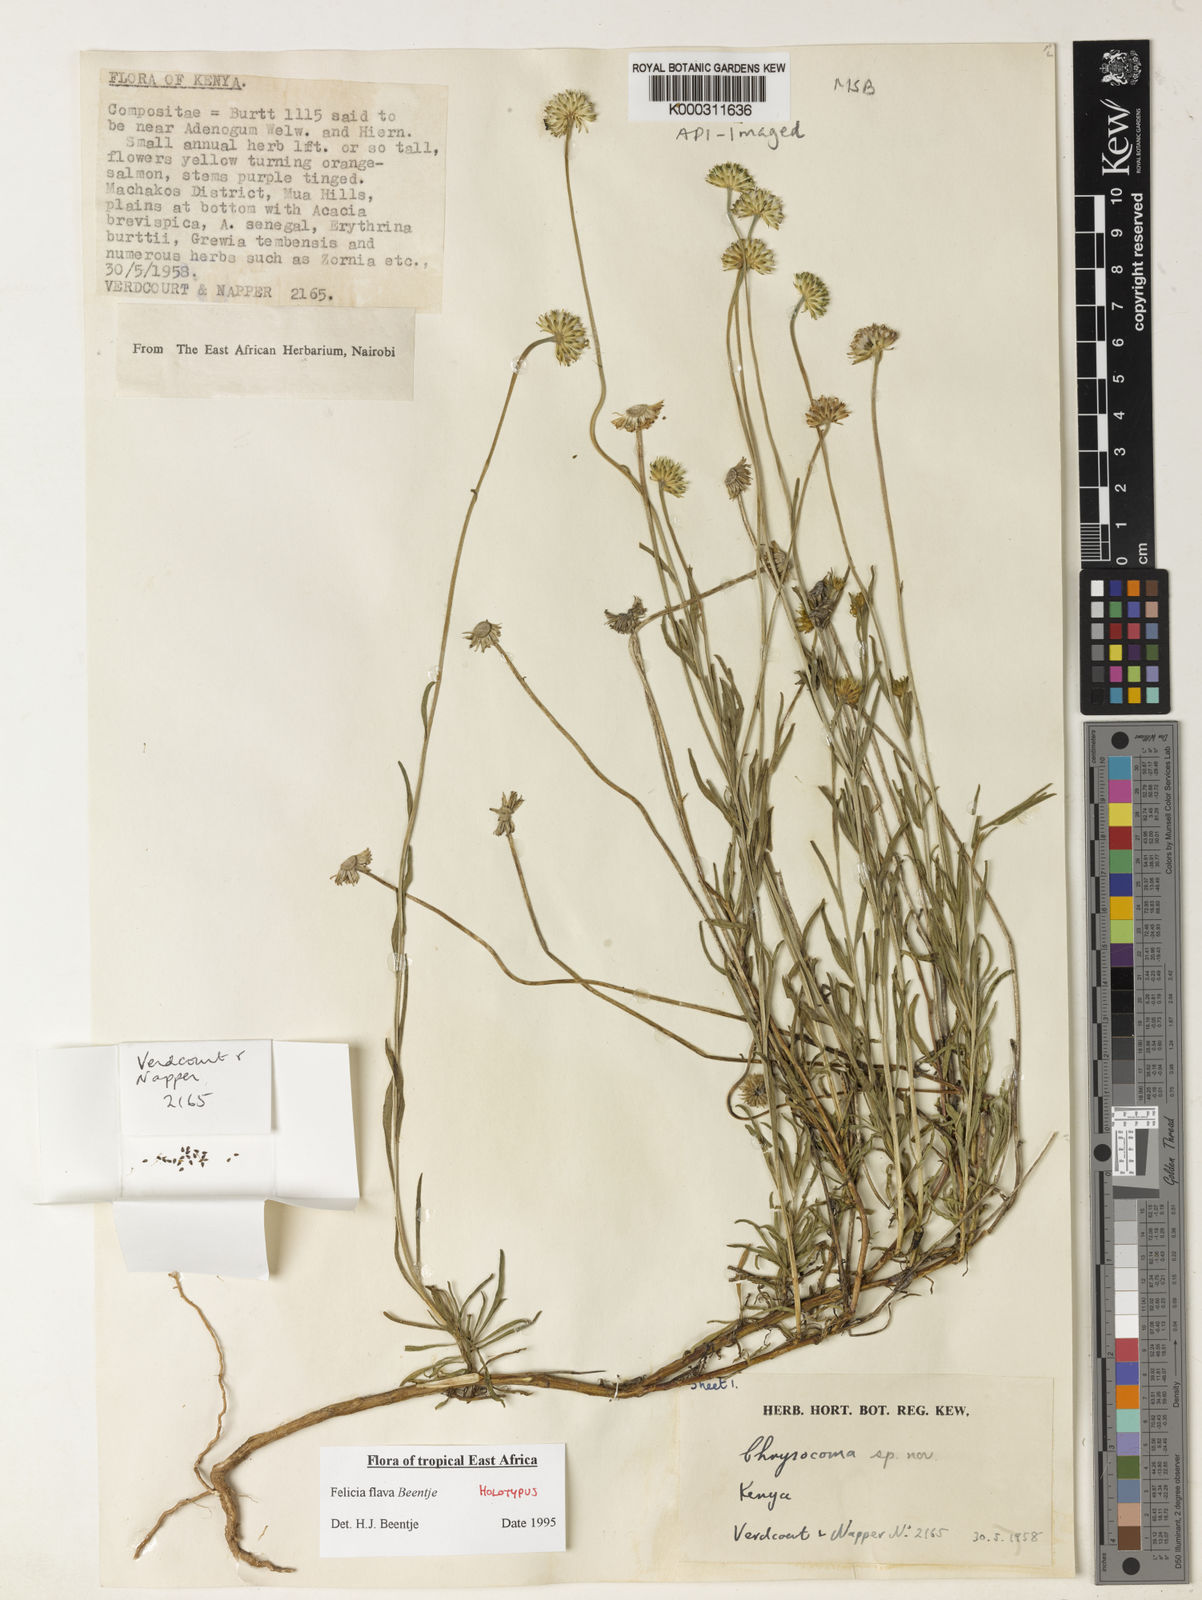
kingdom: Plantae
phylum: Tracheophyta
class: Magnoliopsida
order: Asterales
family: Asteraceae
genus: Felicia
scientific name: Felicia flava
